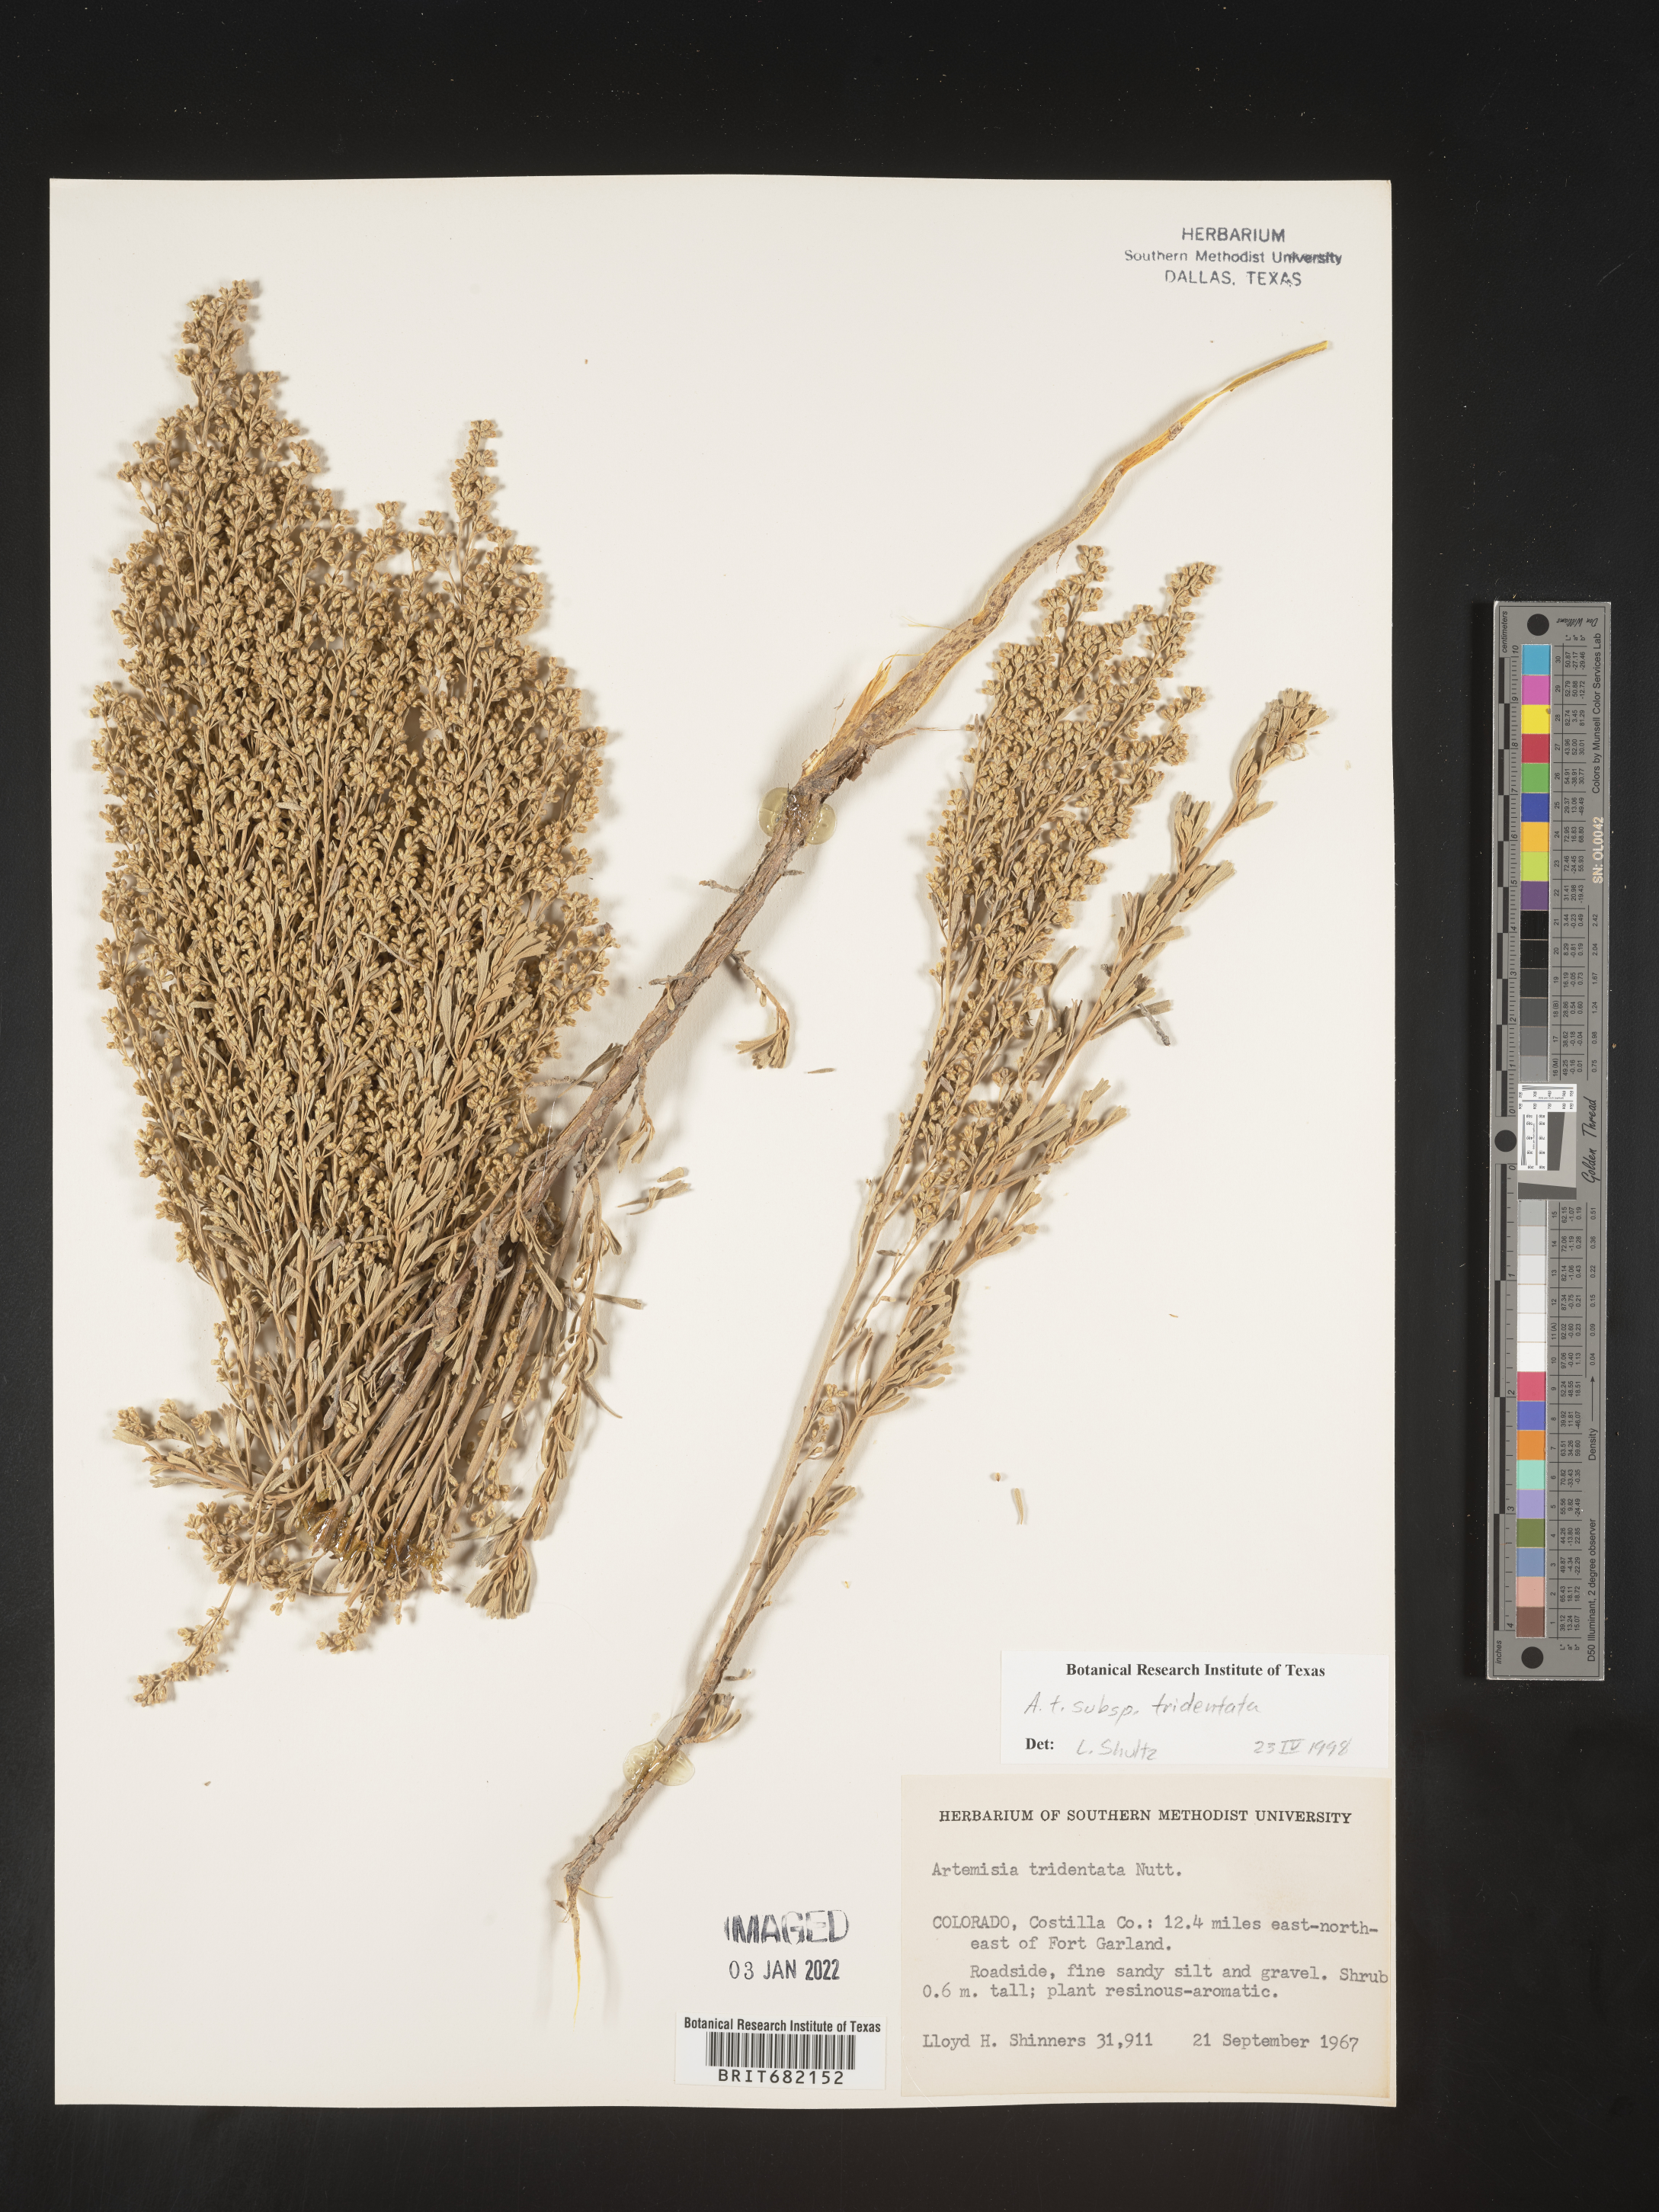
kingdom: Plantae
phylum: Tracheophyta
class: Magnoliopsida
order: Asterales
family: Asteraceae
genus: Artemisia
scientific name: Artemisia tridentata
